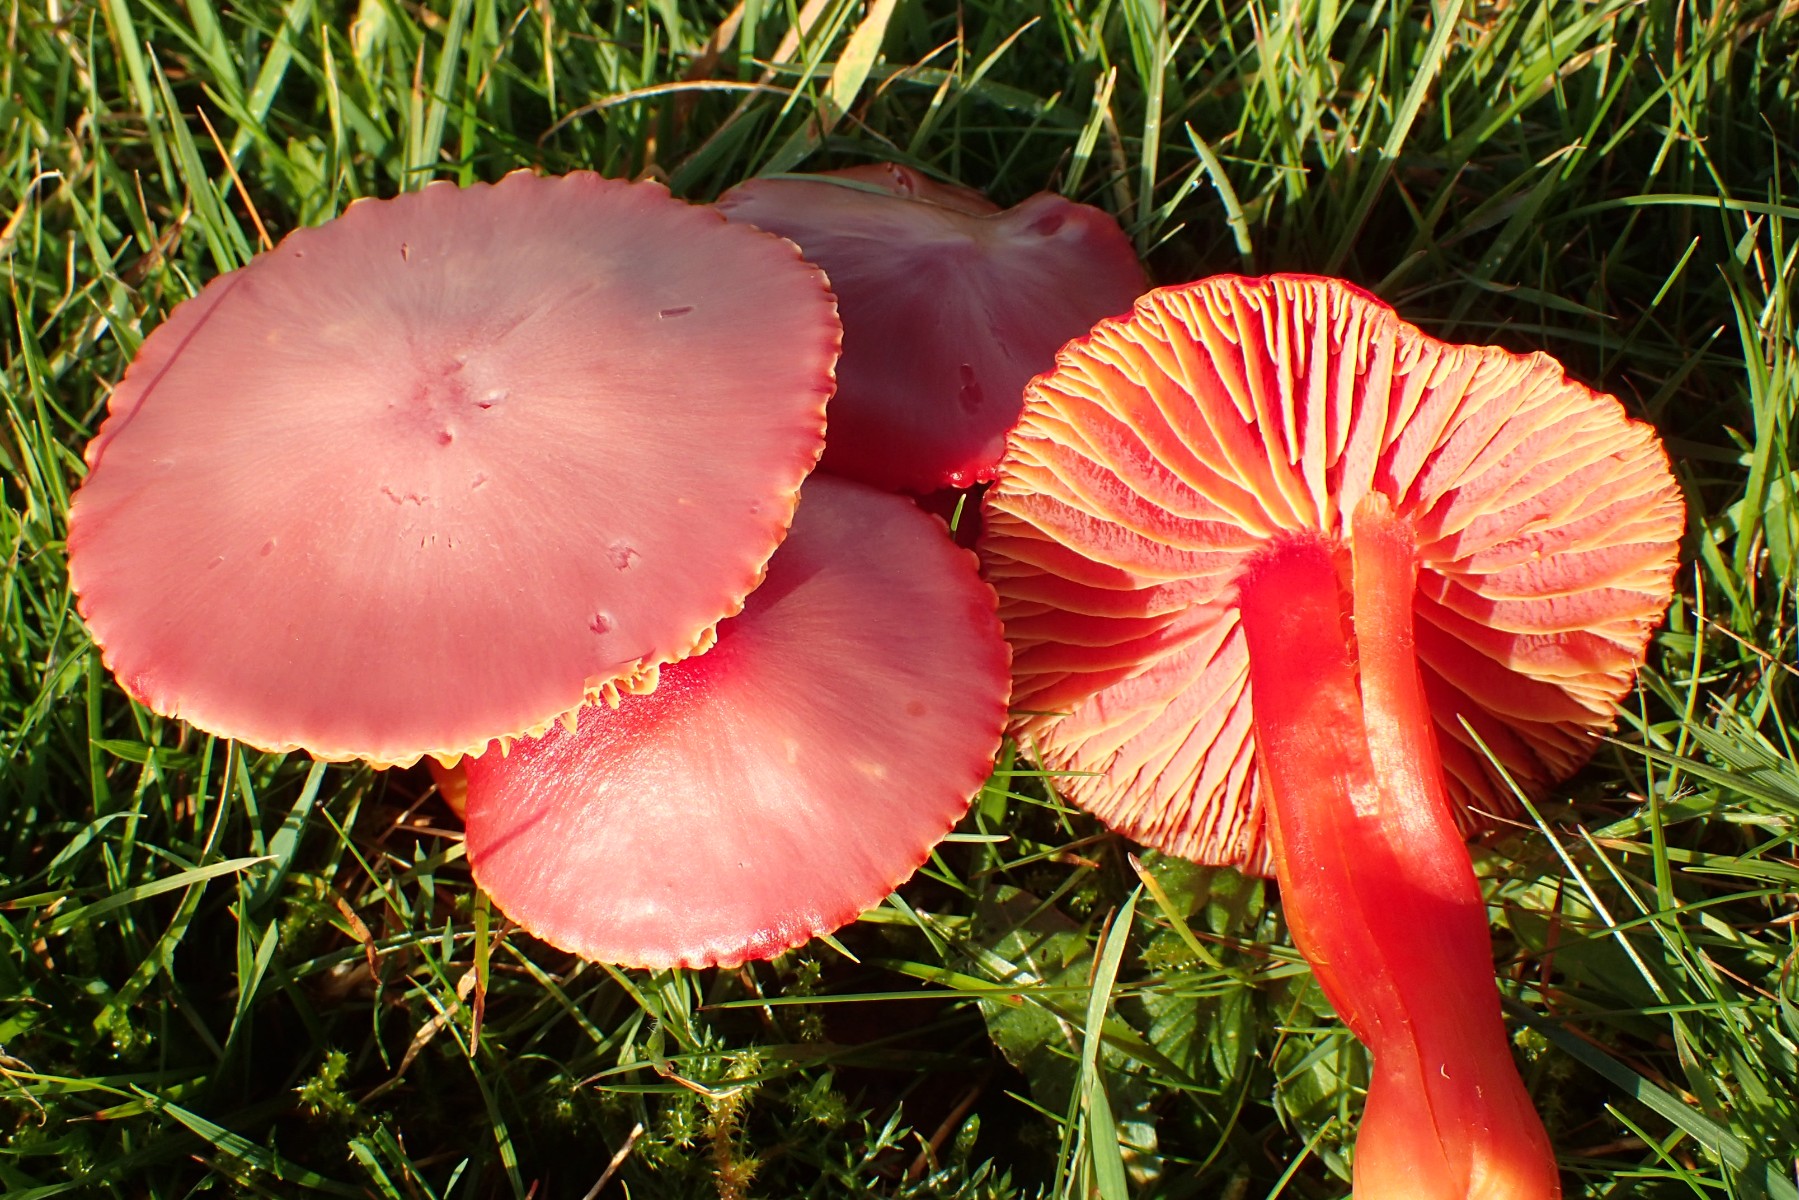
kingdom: Fungi
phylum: Basidiomycota
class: Agaricomycetes
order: Agaricales
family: Hygrophoraceae
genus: Hygrocybe
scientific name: Hygrocybe coccinea
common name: cinnober-vokshat
